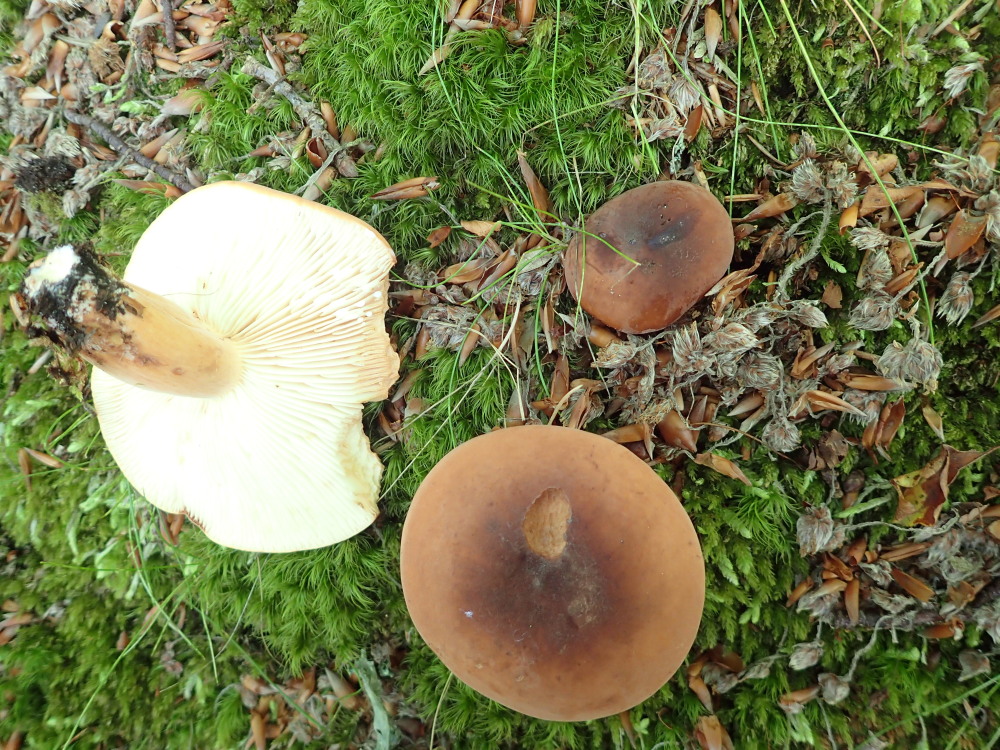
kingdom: Fungi
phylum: Basidiomycota
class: Agaricomycetes
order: Russulales
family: Russulaceae
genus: Lactifluus
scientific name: Lactifluus volemus
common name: spiselig mælkehat
